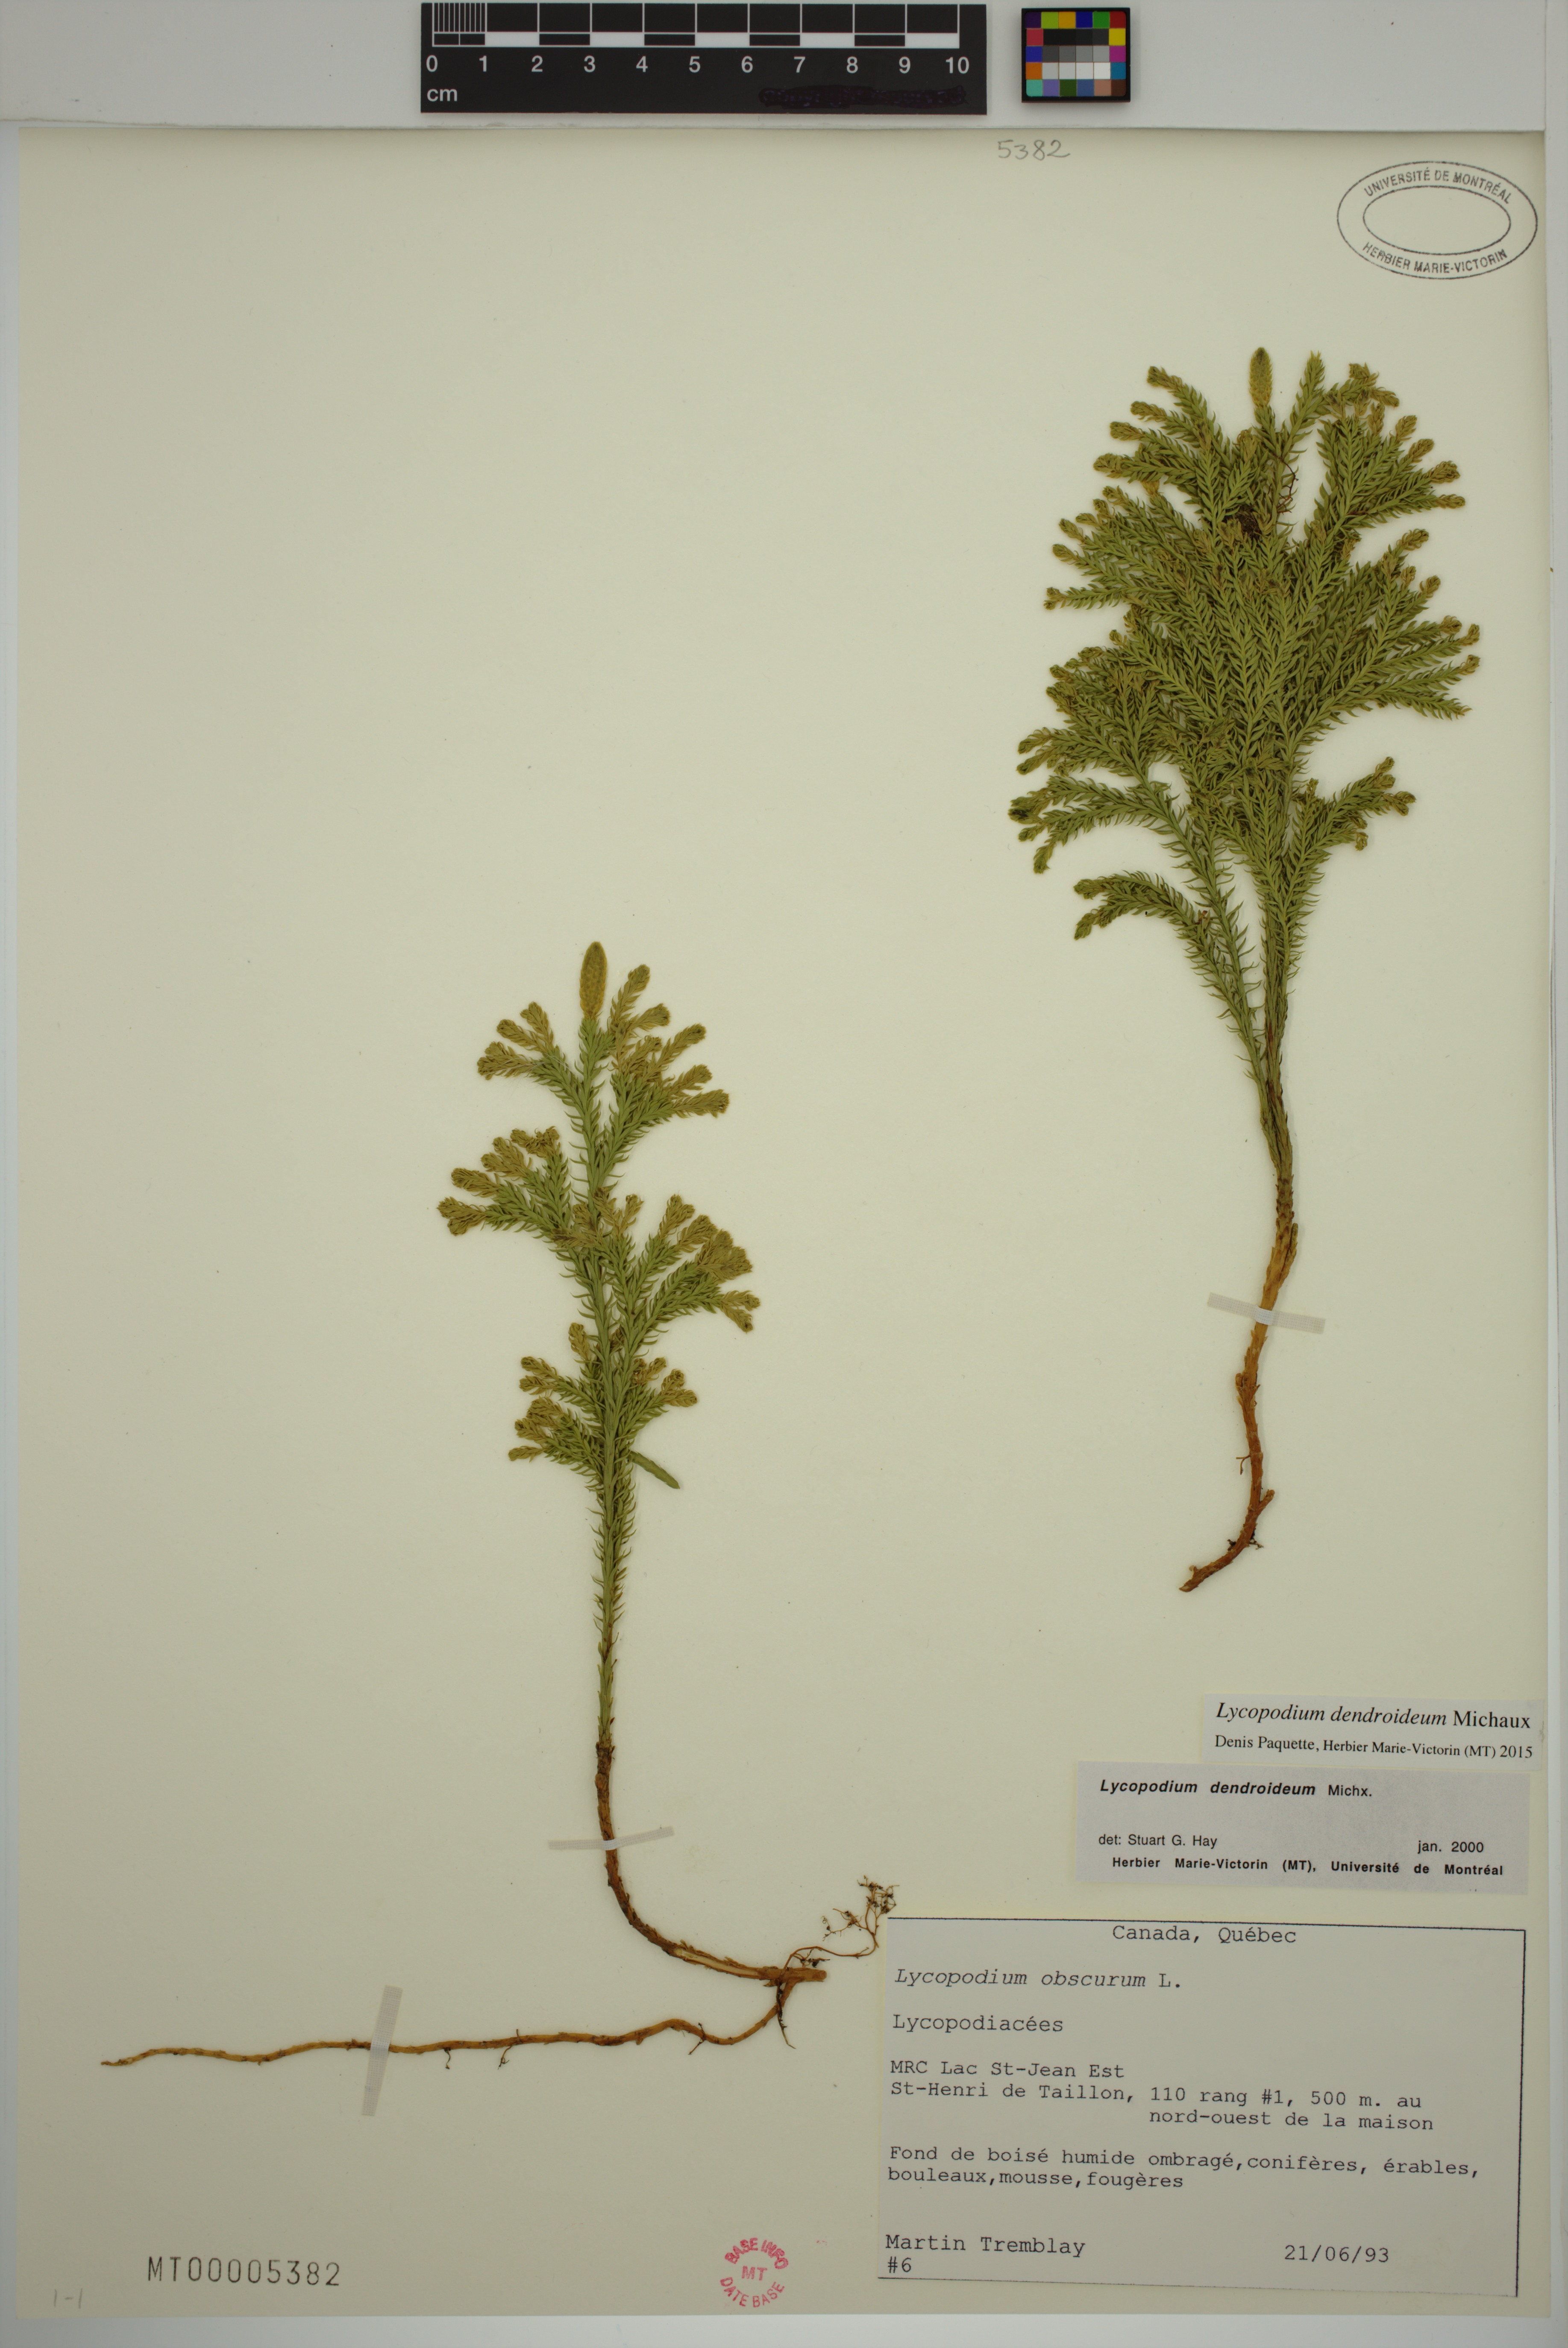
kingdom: Plantae
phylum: Tracheophyta
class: Lycopodiopsida
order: Lycopodiales
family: Lycopodiaceae
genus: Dendrolycopodium
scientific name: Dendrolycopodium dendroideum
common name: Northern tree-clubmoss
